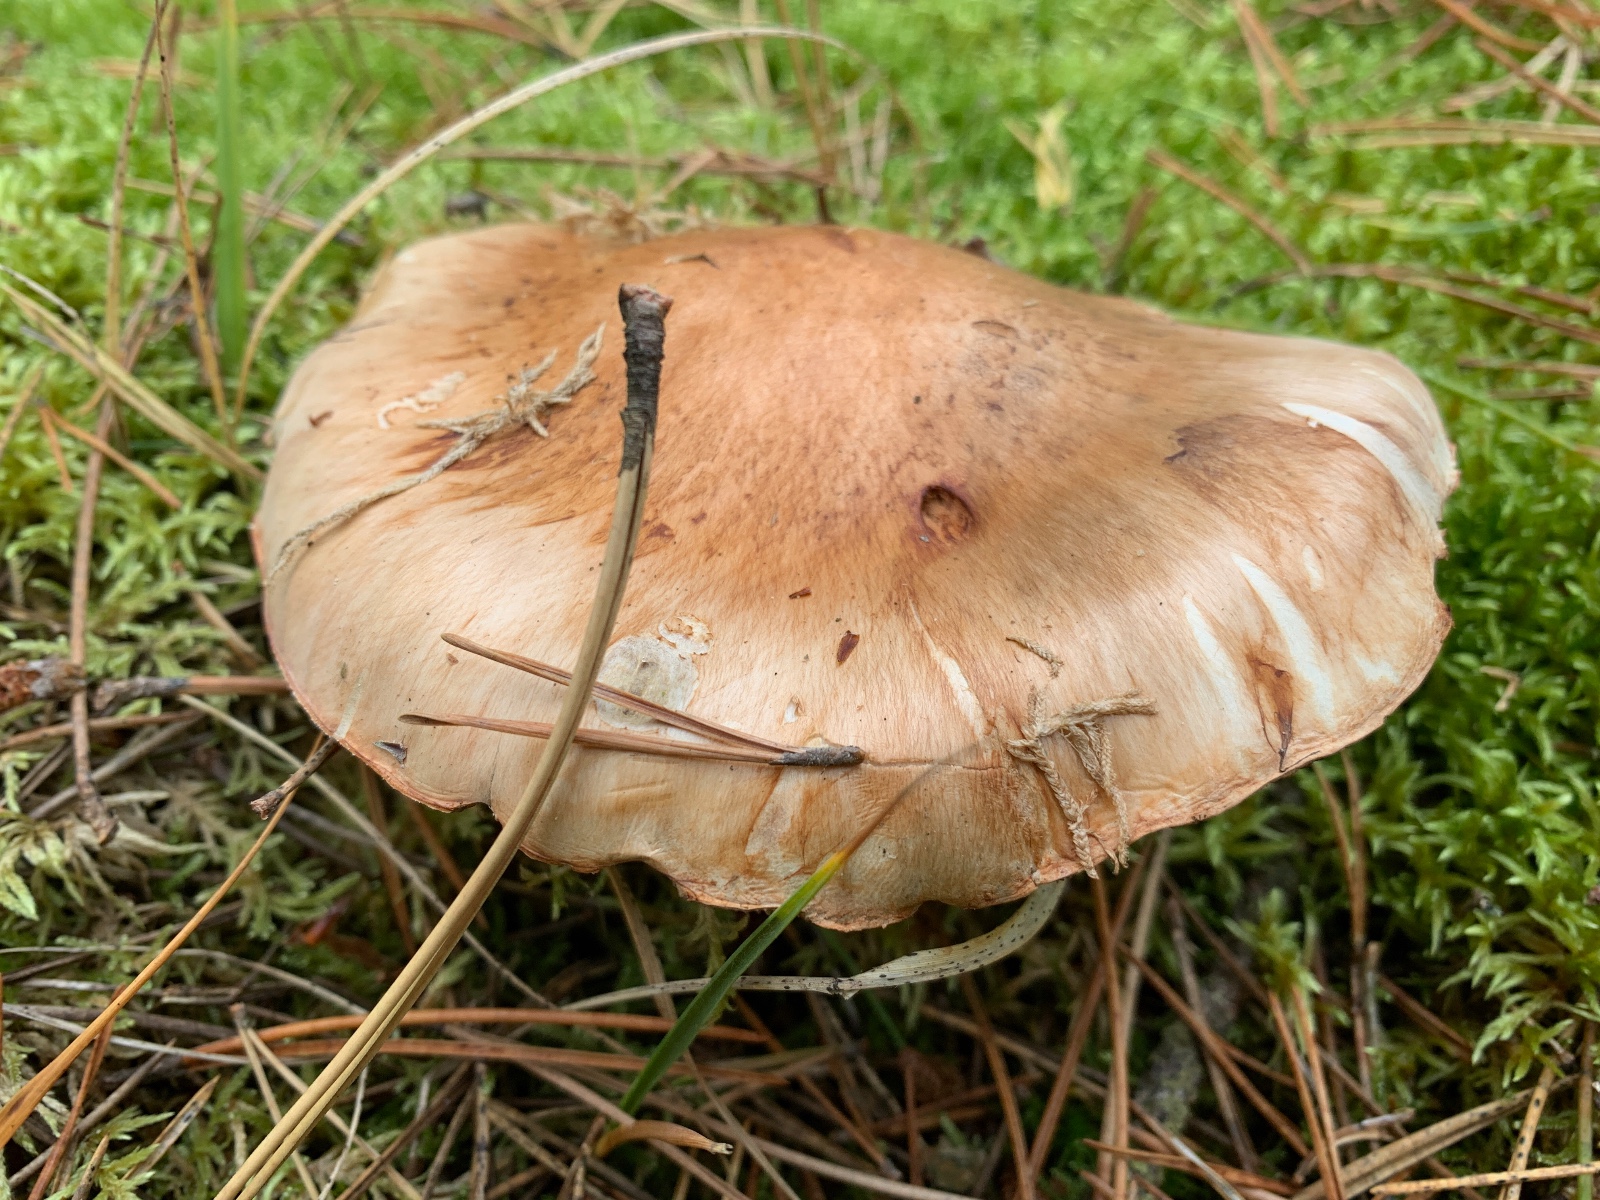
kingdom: Fungi
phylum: Basidiomycota
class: Agaricomycetes
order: Agaricales
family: Tricholomataceae
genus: Tricholoma
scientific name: Tricholoma focale
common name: halsbånd-ridderhat
